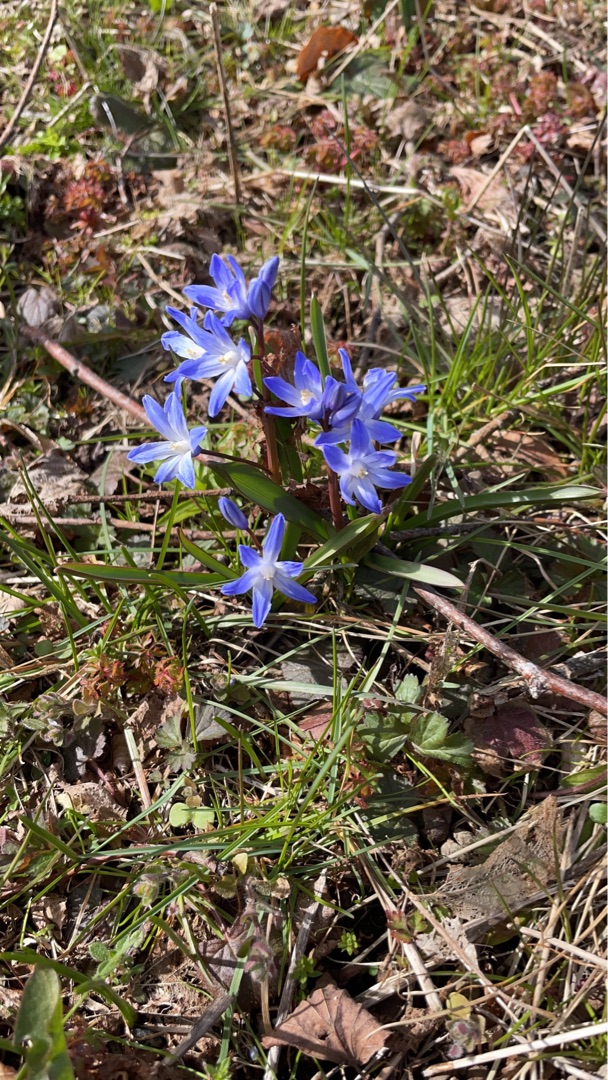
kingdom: Plantae
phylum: Tracheophyta
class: Liliopsida
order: Asparagales
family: Asparagaceae
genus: Scilla
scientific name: Scilla forbesii
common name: Almindelig snepryd
